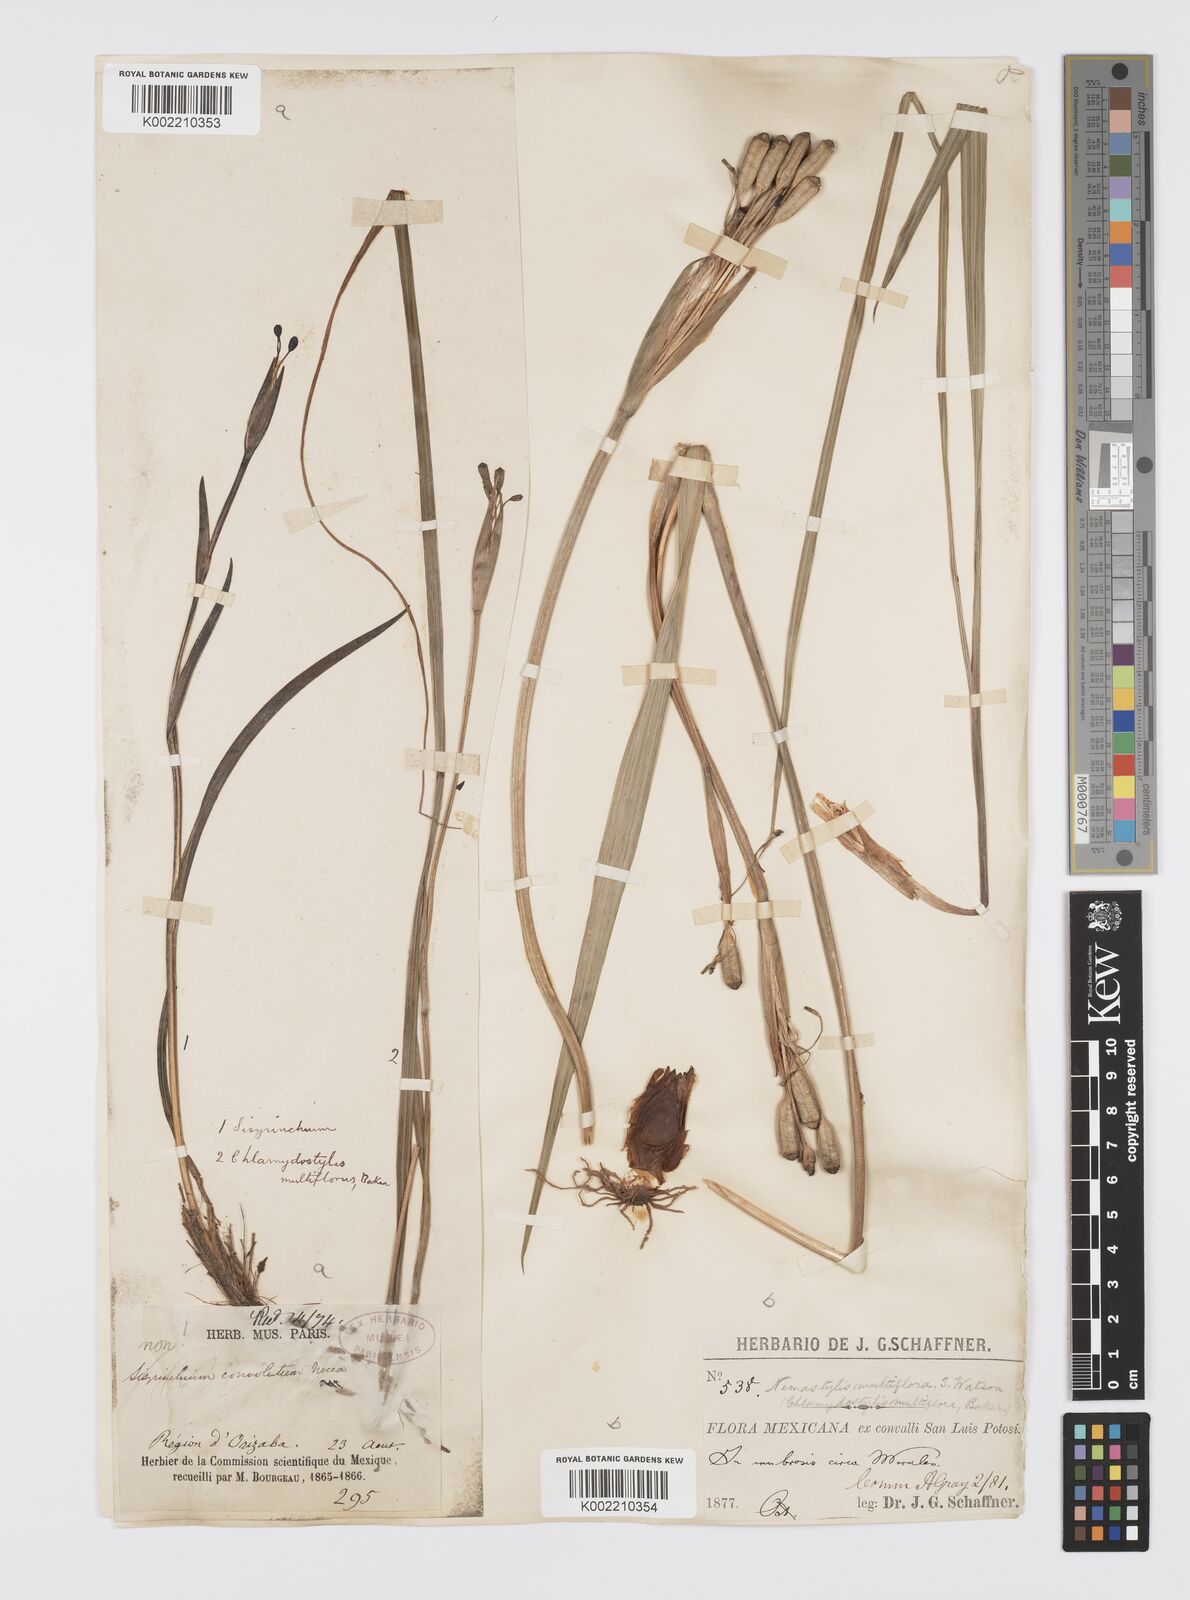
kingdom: Plantae
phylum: Tracheophyta
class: Liliopsida
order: Asparagales
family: Iridaceae
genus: Tigridia
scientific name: Tigridia multiflora
